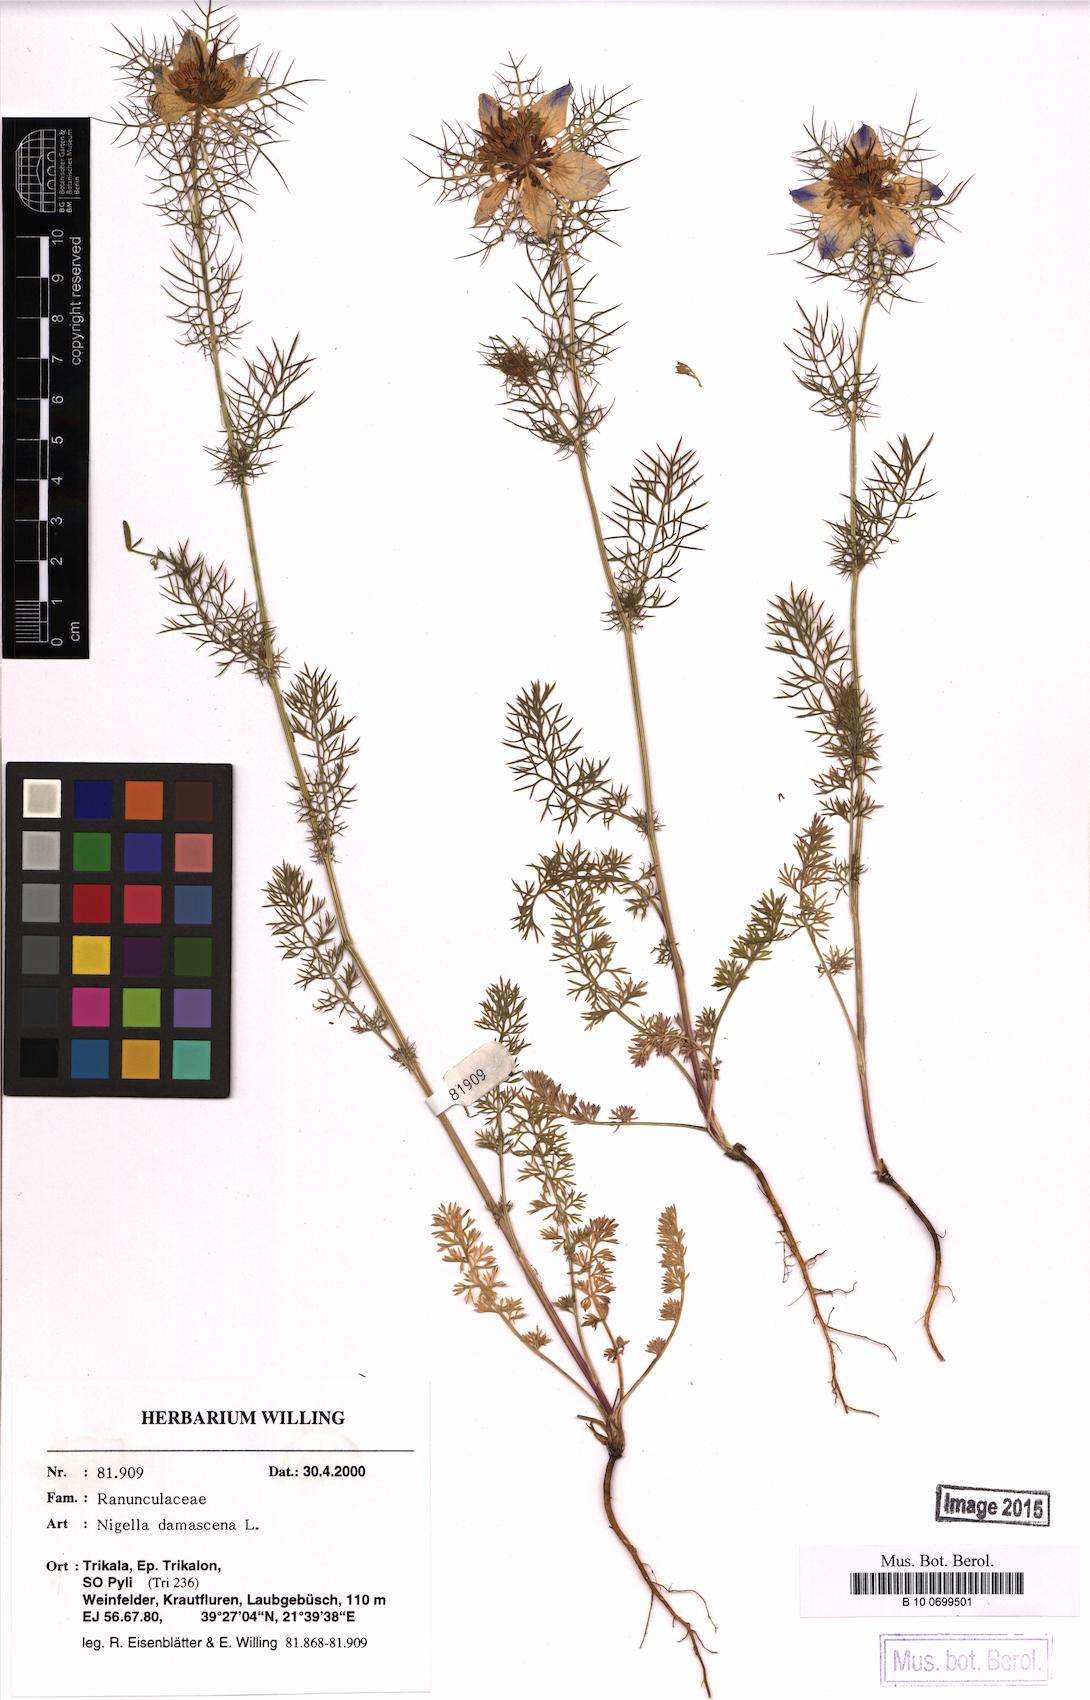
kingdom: Plantae
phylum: Tracheophyta
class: Magnoliopsida
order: Ranunculales
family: Ranunculaceae
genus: Nigella
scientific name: Nigella damascena
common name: Love-in-a-mist
